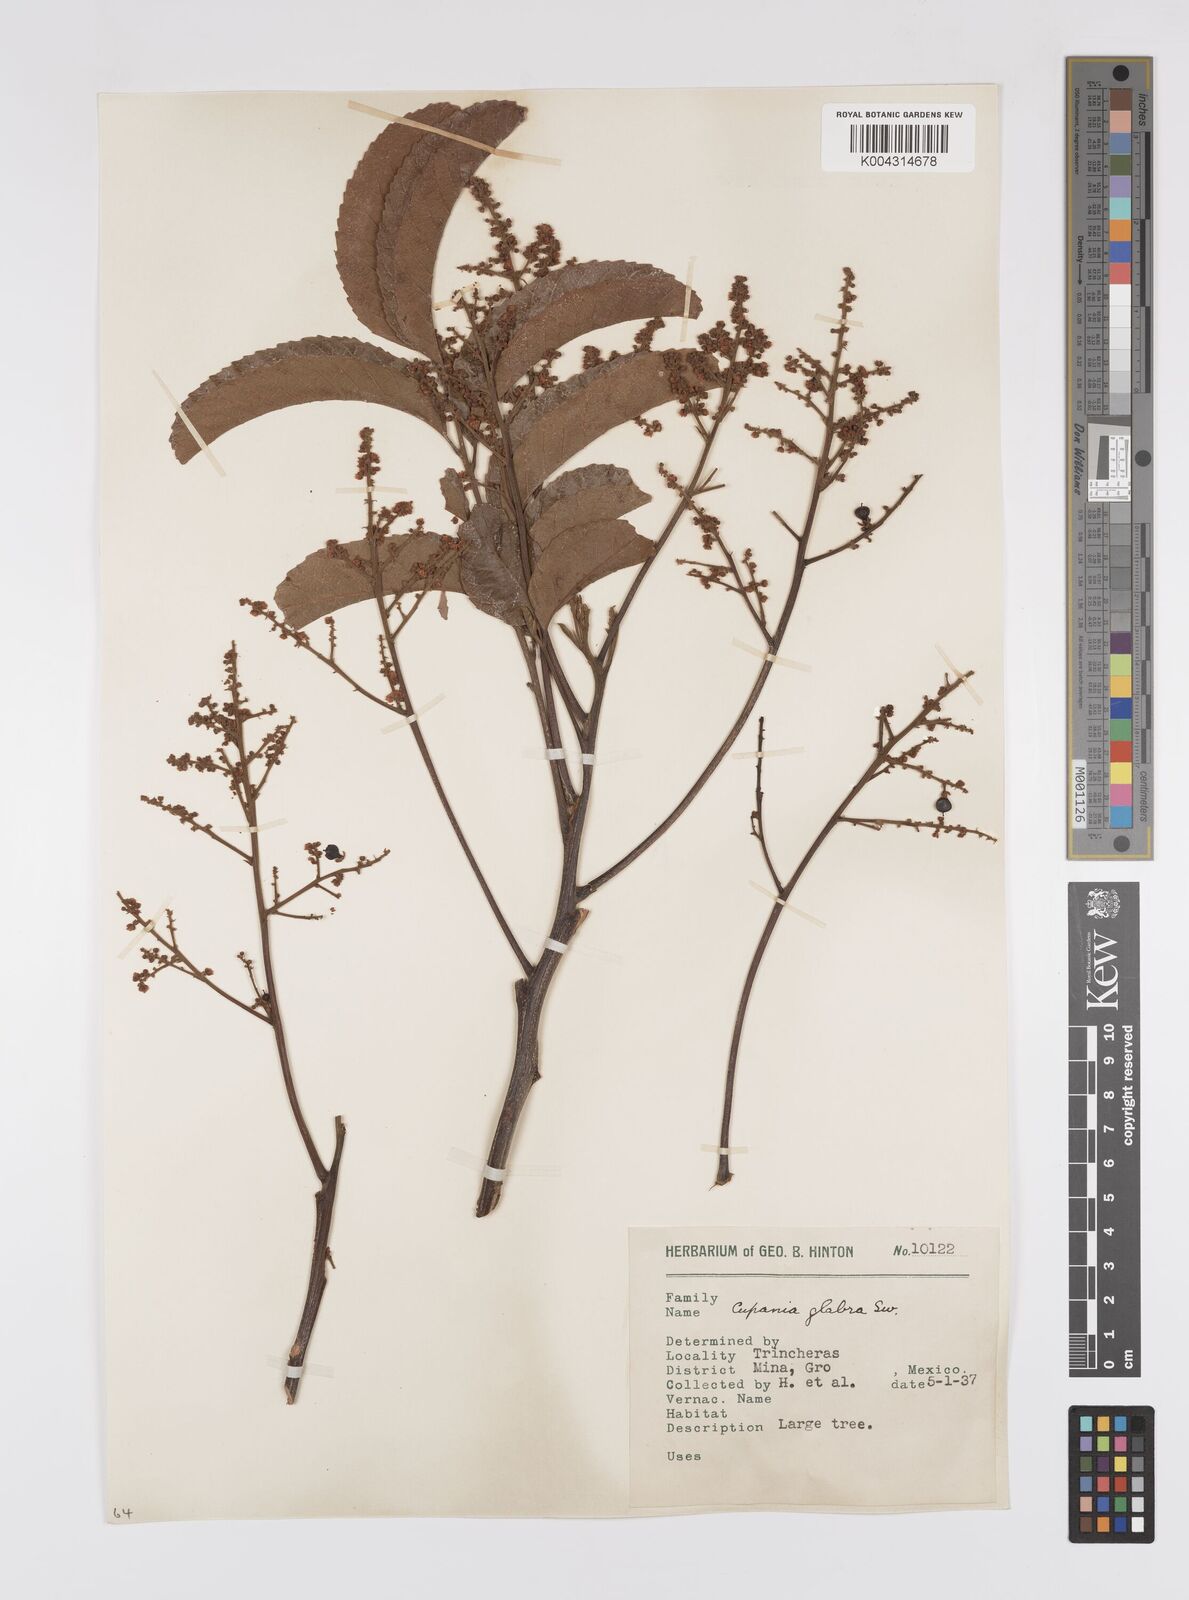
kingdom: Plantae
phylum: Tracheophyta
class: Magnoliopsida
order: Sapindales
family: Sapindaceae
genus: Cupania
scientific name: Cupania
